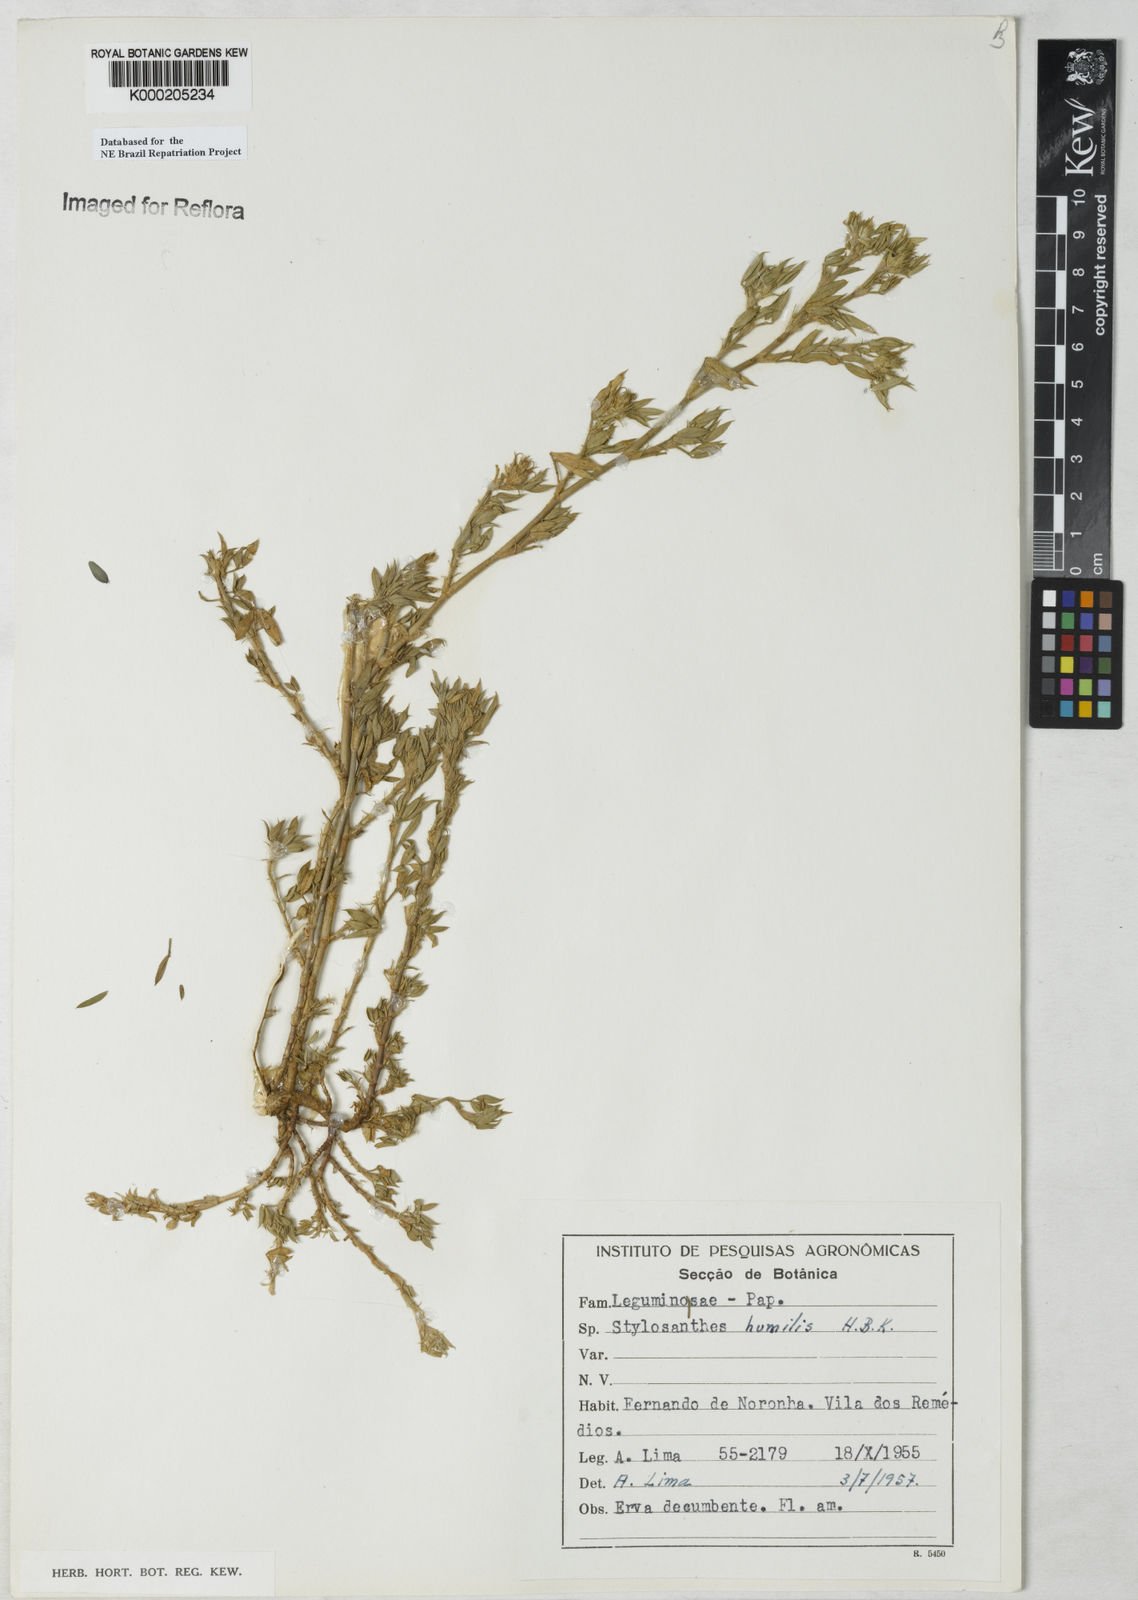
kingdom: Plantae
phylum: Tracheophyta
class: Magnoliopsida
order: Fabales
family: Fabaceae
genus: Stylosanthes
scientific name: Stylosanthes humilis
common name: Townsville stylo
